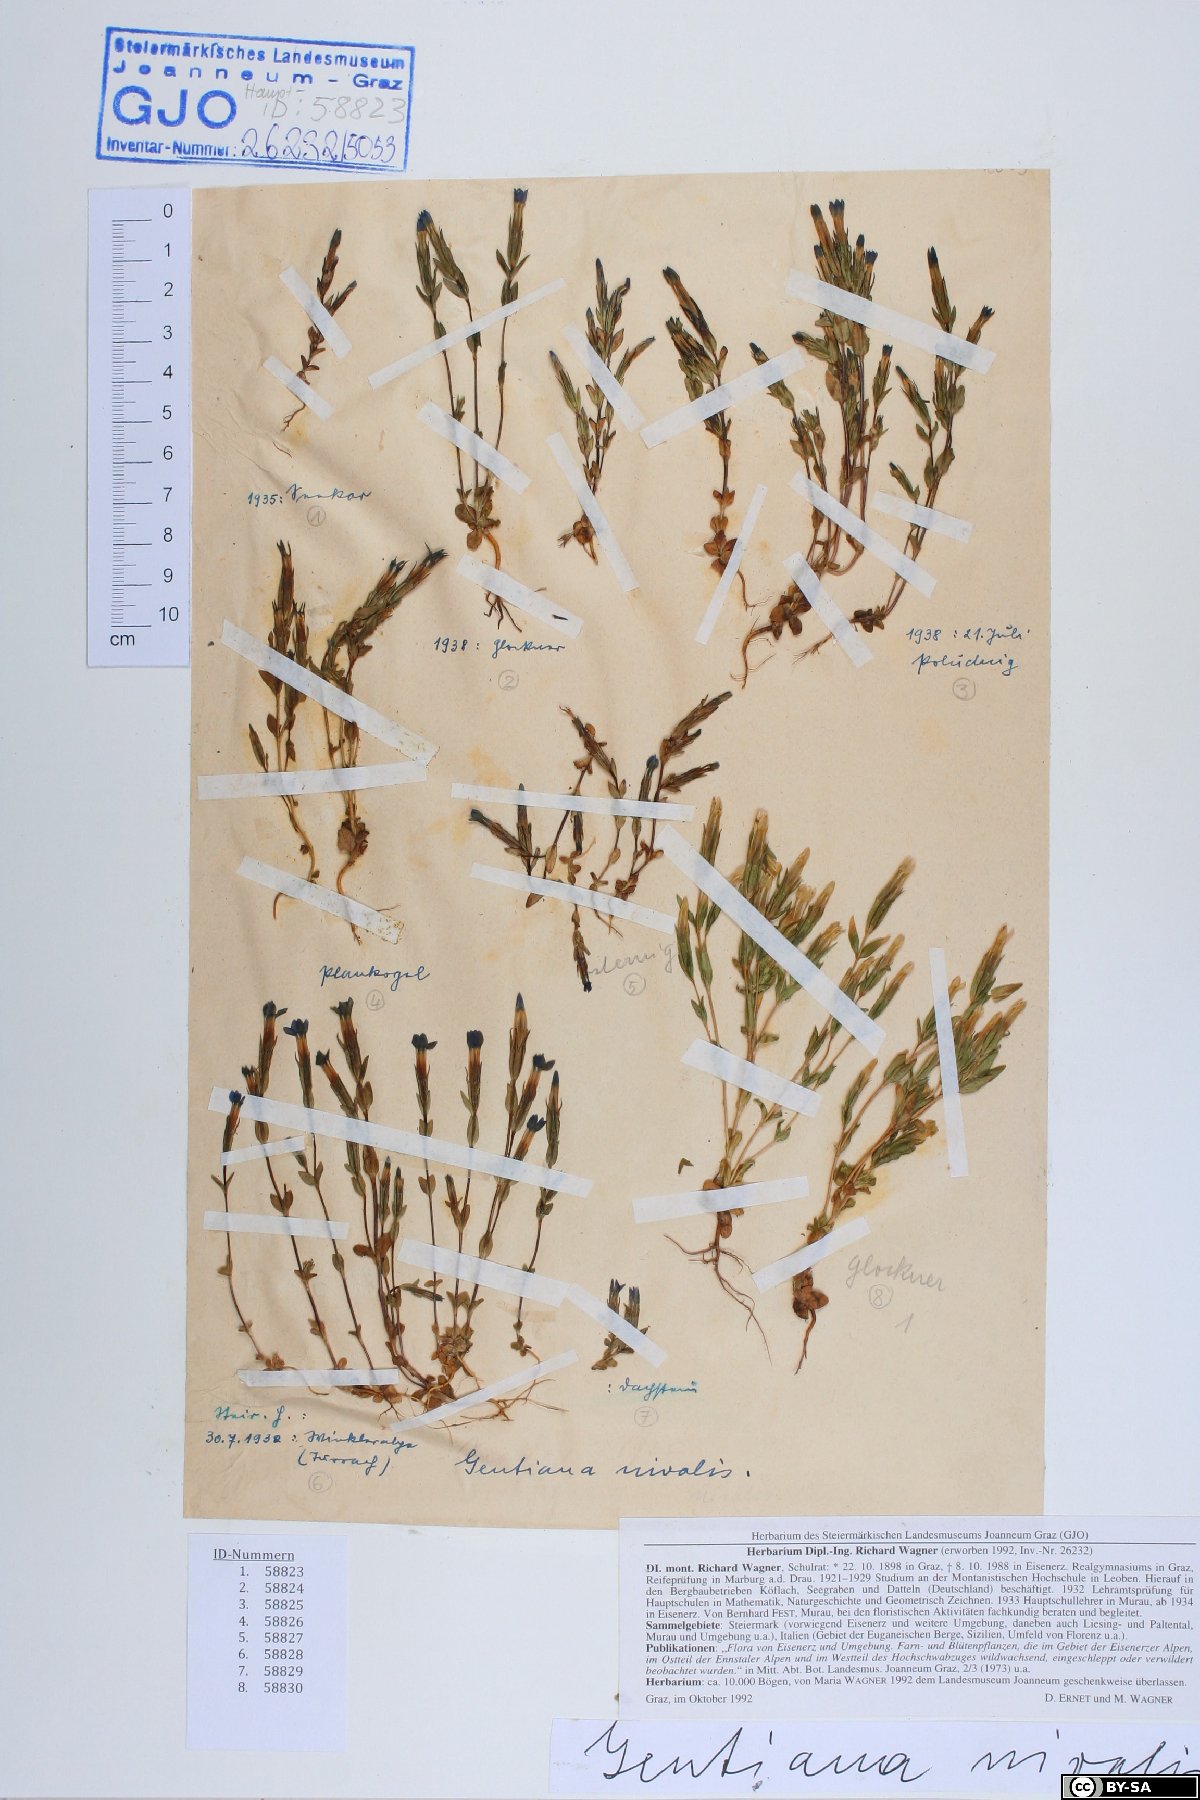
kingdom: Plantae
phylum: Tracheophyta
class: Magnoliopsida
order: Gentianales
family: Gentianaceae
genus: Gentiana
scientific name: Gentiana nivalis
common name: Alpine gentian
